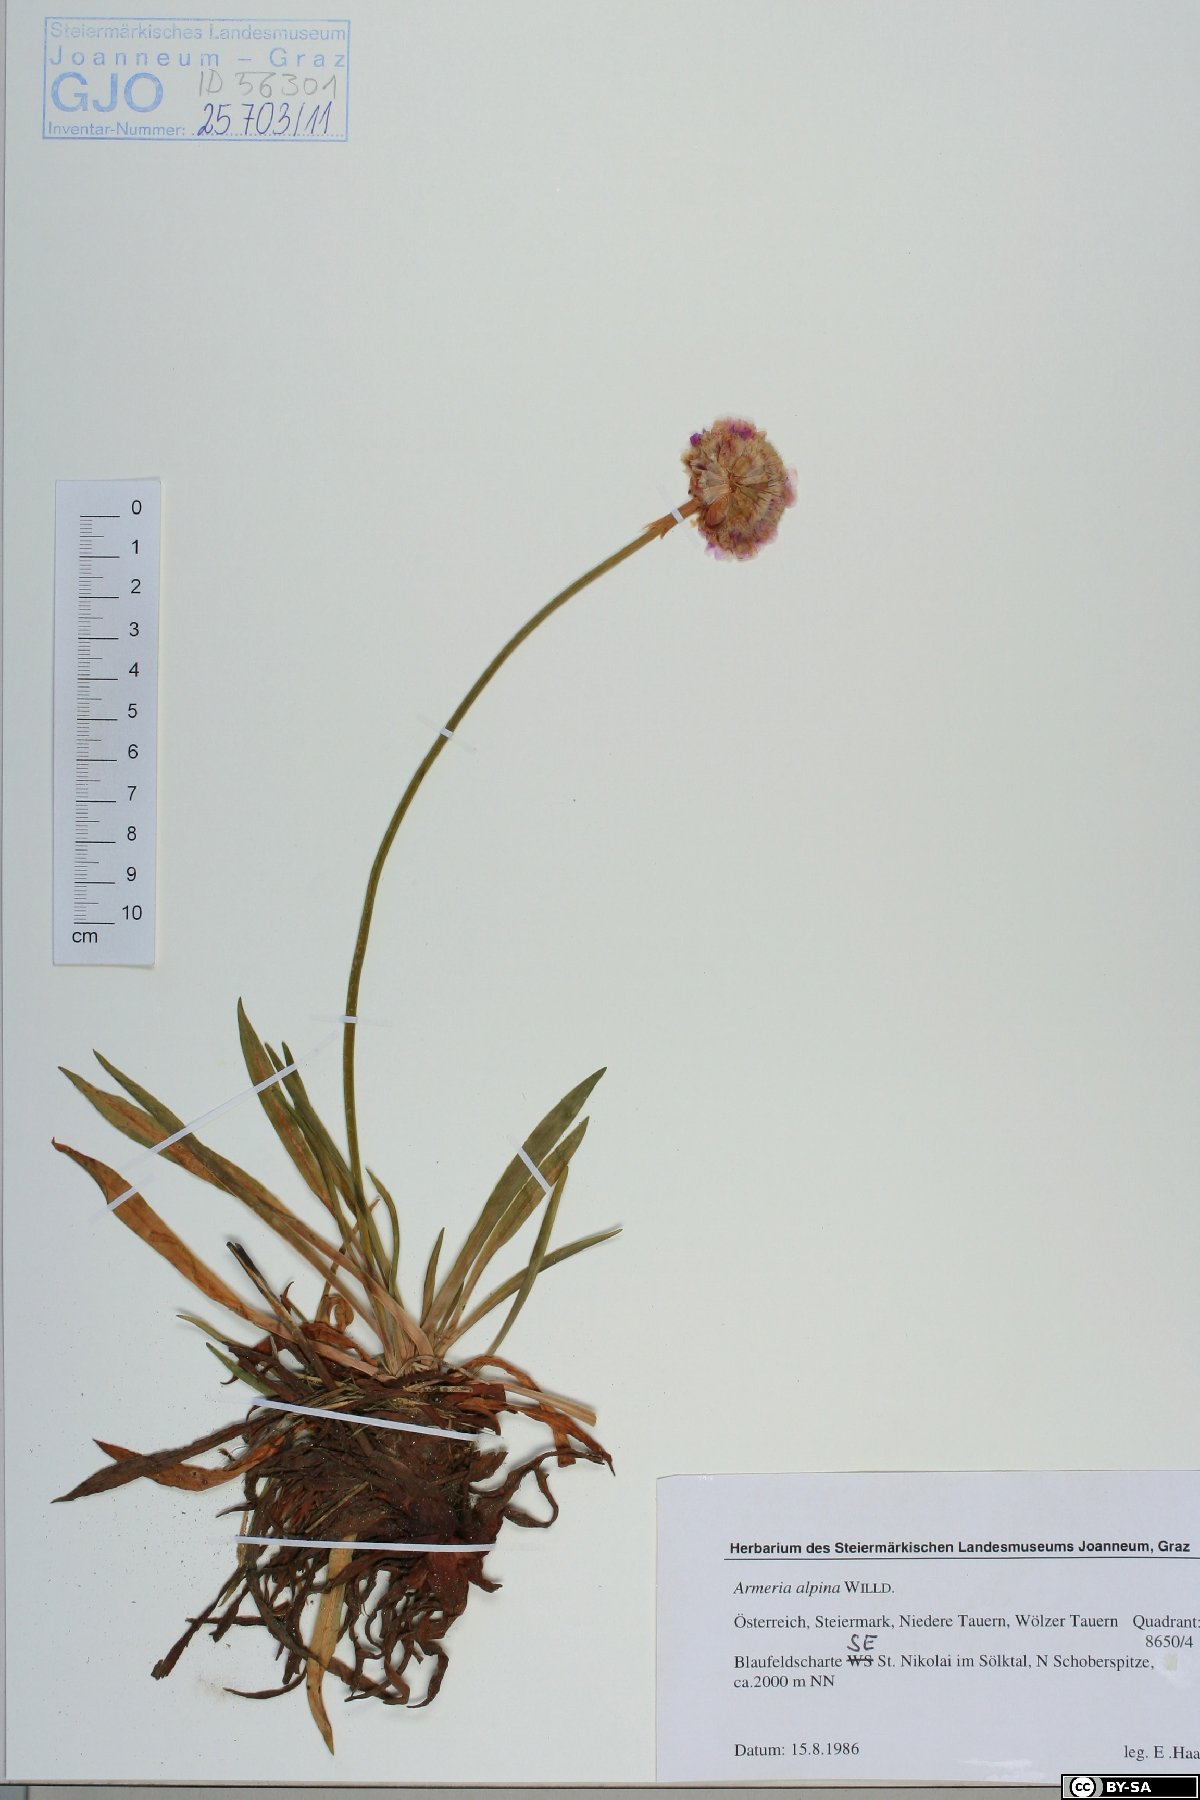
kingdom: Plantae
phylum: Tracheophyta
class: Magnoliopsida
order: Caryophyllales
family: Plumbaginaceae
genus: Armeria
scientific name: Armeria alpina
